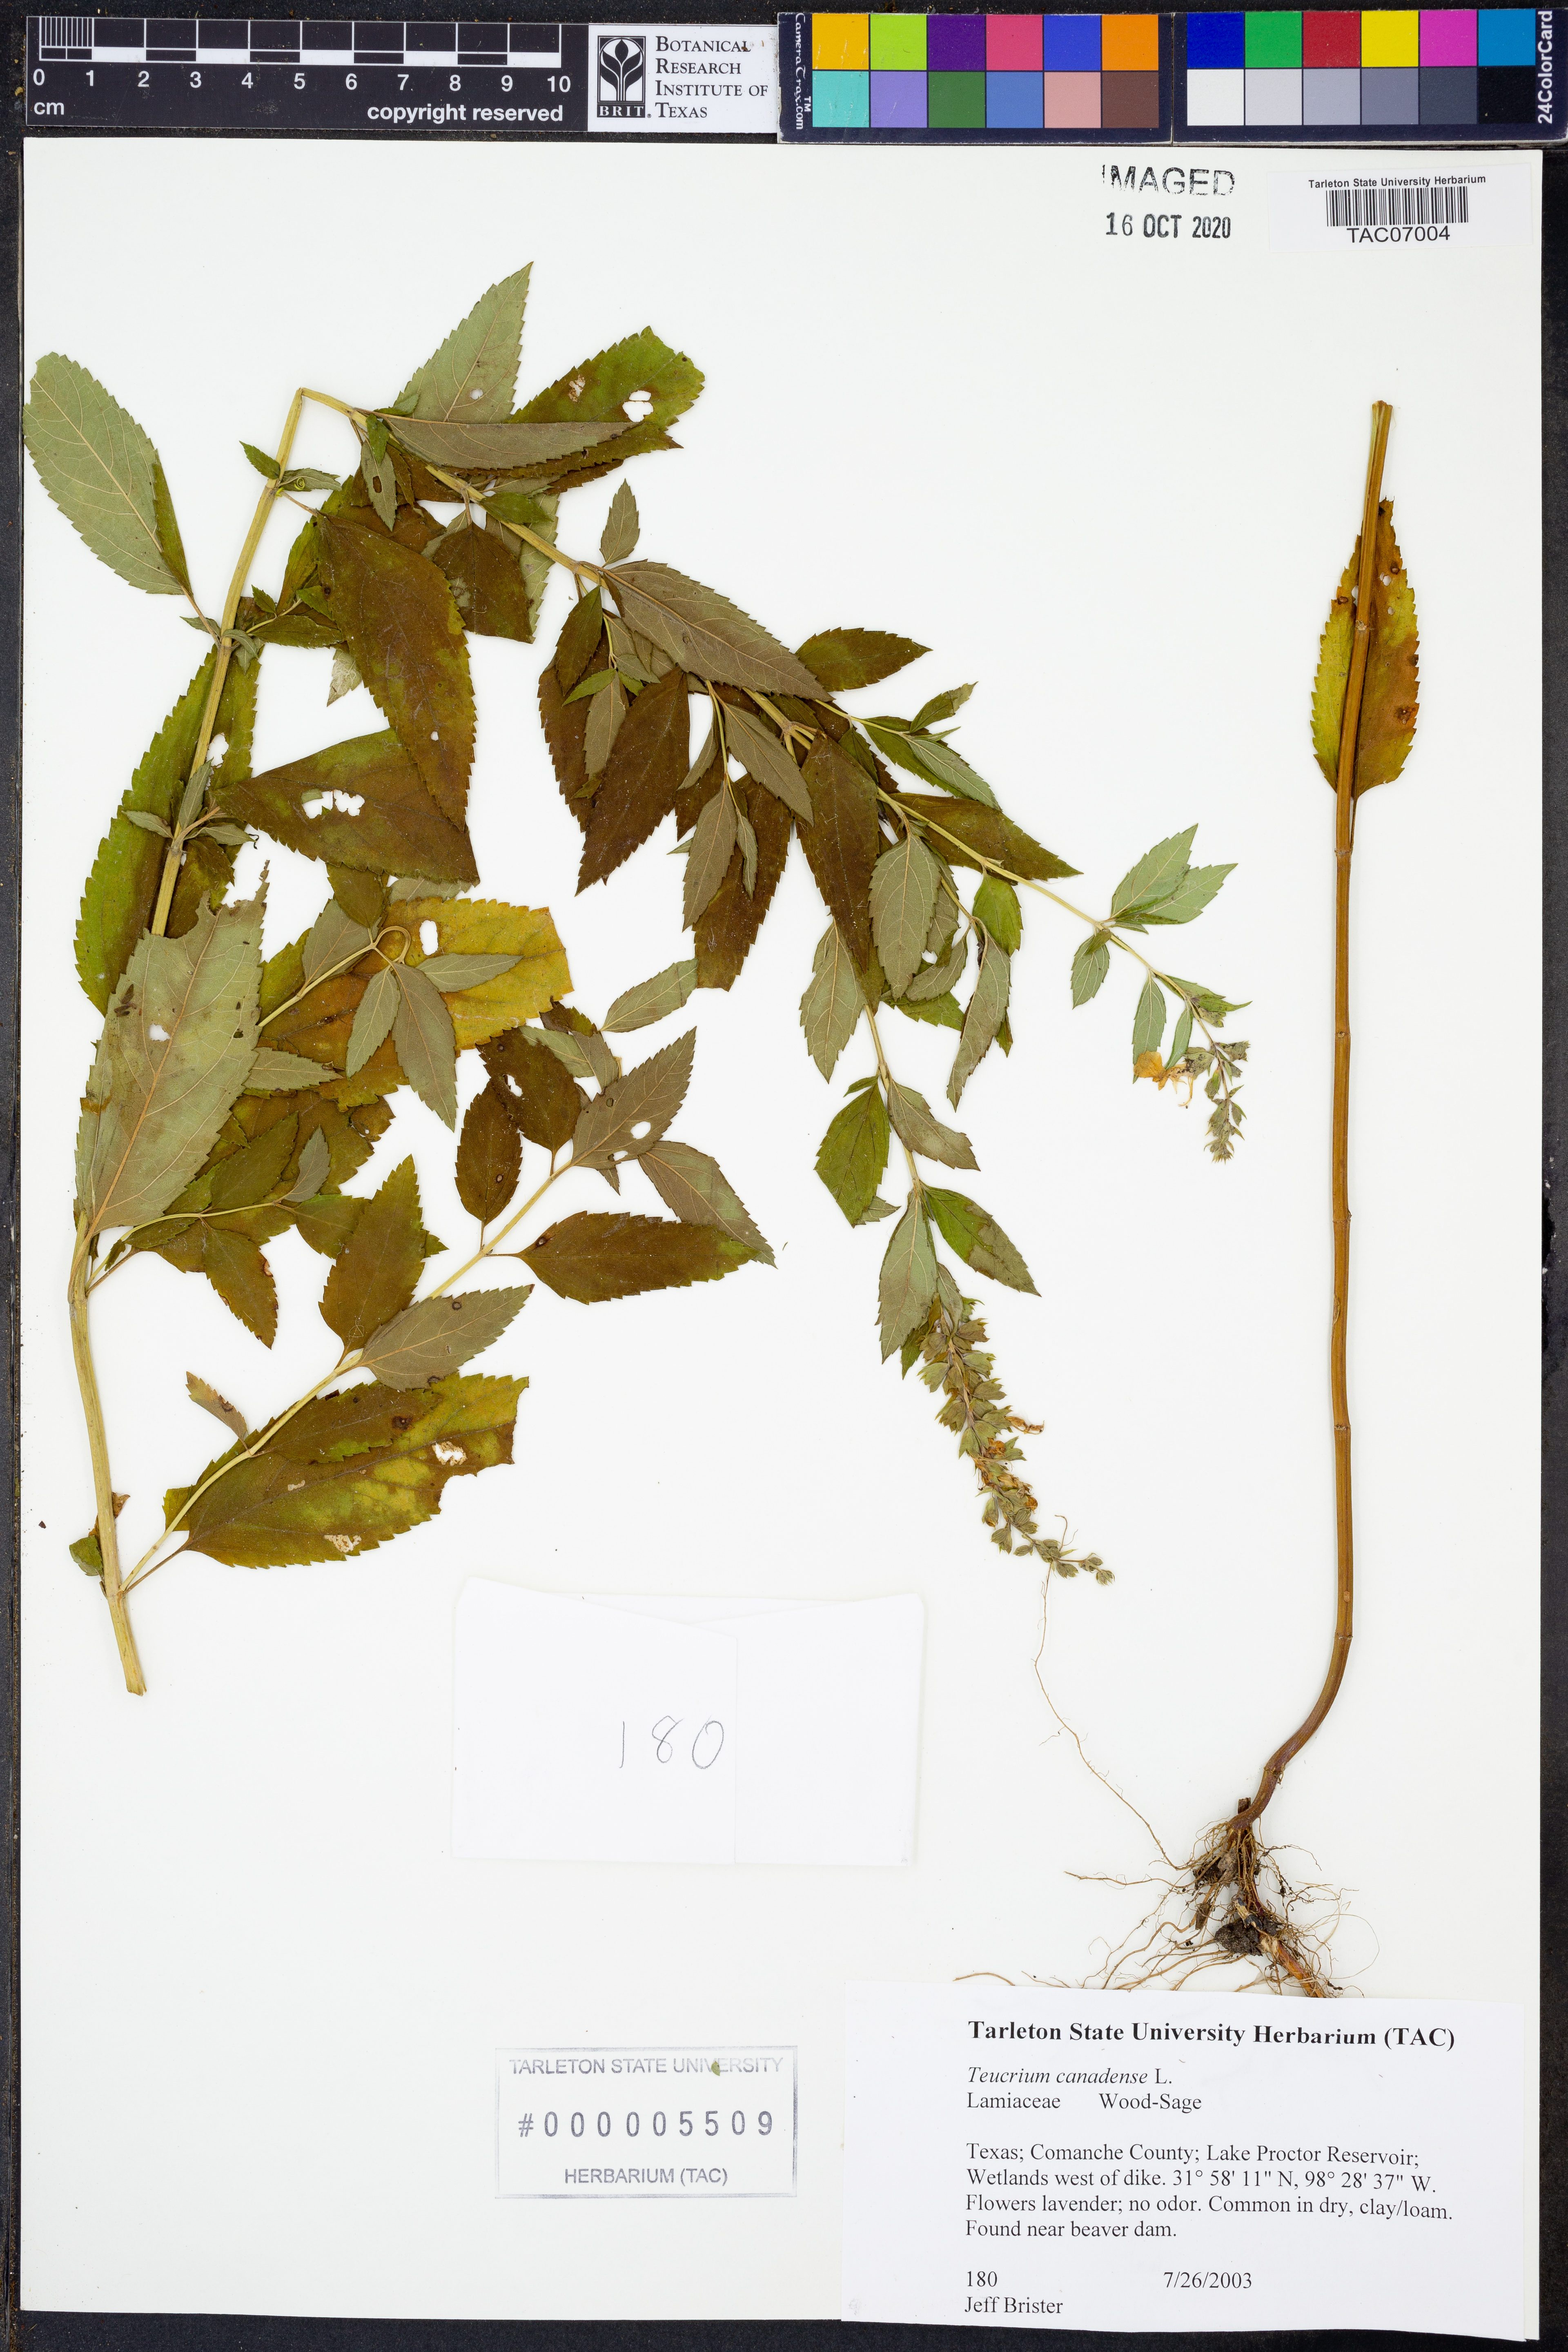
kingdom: Plantae
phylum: Tracheophyta
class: Magnoliopsida
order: Lamiales
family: Lamiaceae
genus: Teucrium
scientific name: Teucrium canadense
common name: American germander
